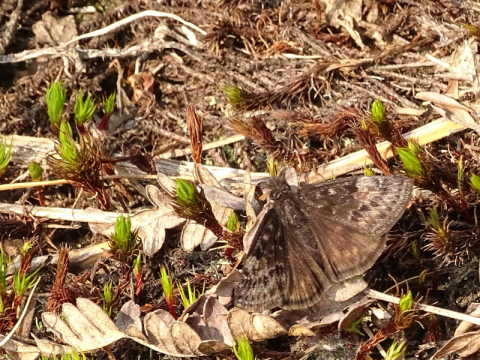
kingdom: Animalia
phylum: Arthropoda
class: Insecta
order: Lepidoptera
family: Hesperiidae
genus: Gesta
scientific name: Gesta
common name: Juvenal's Duskywing
